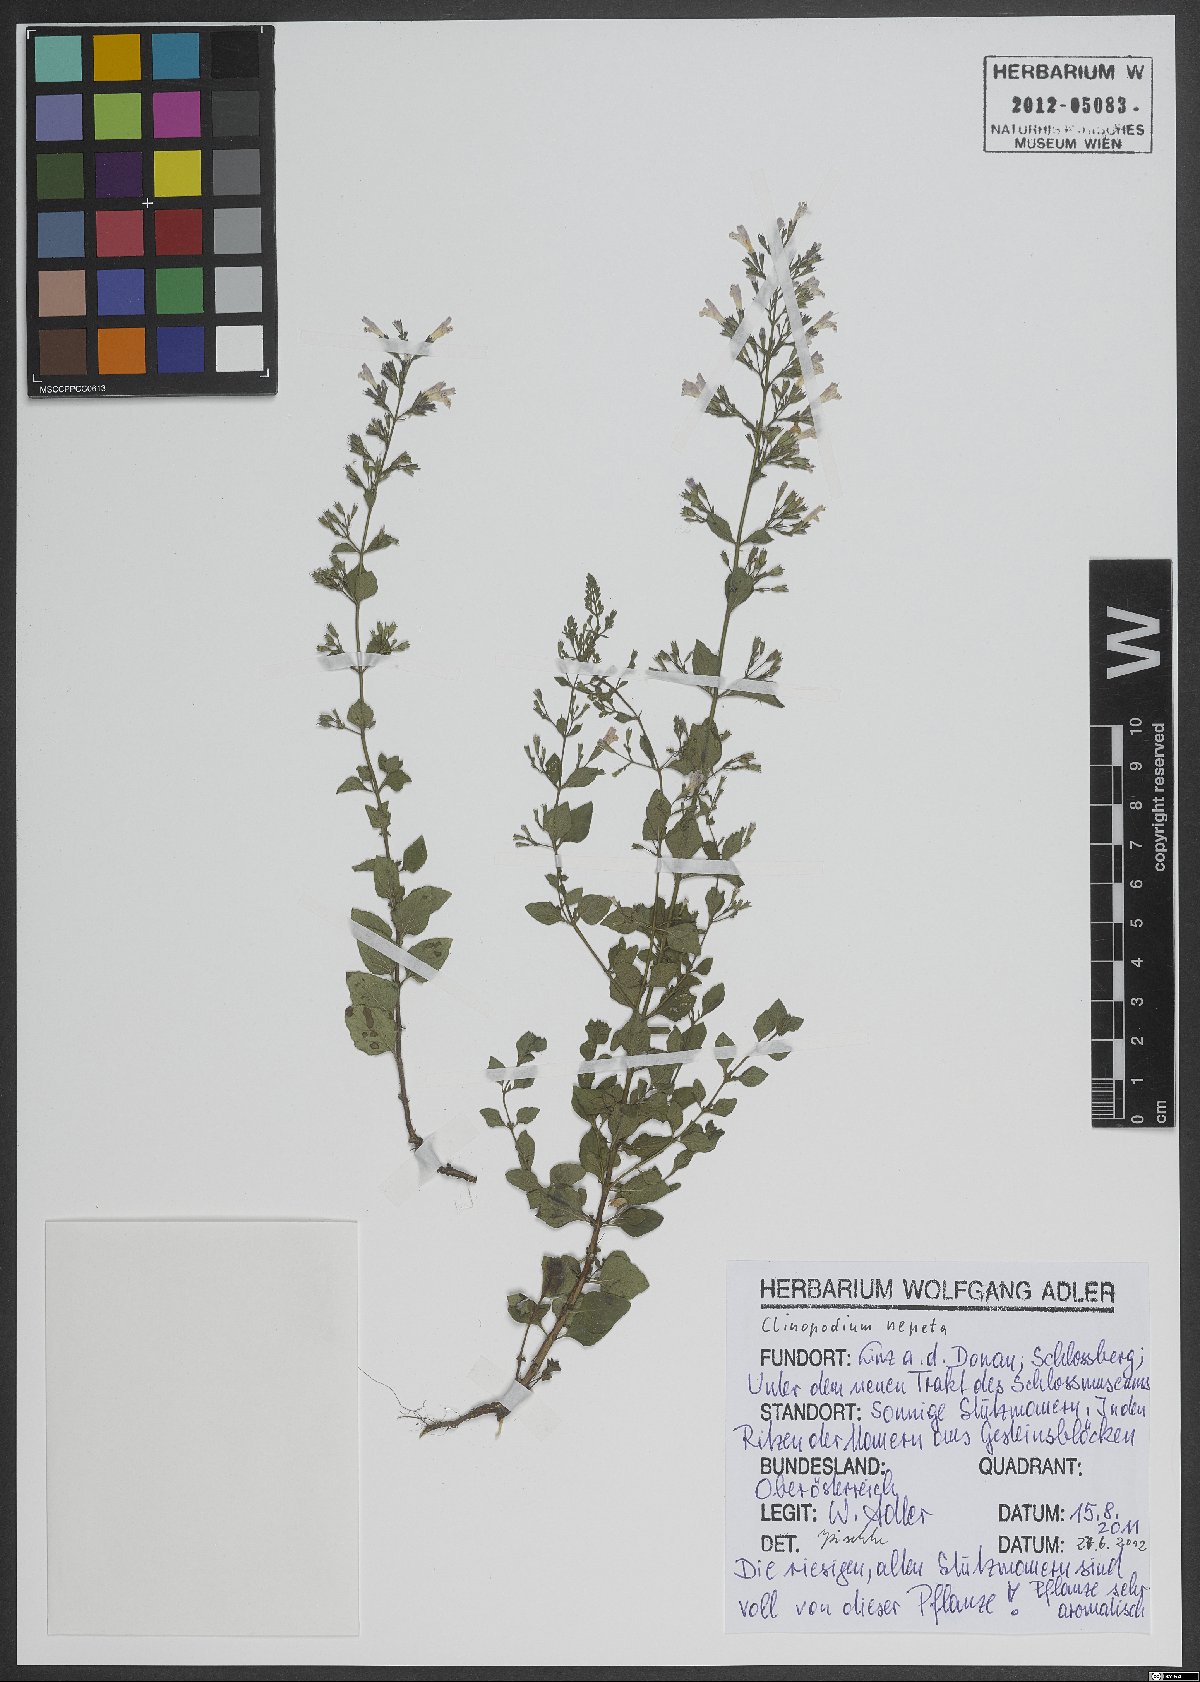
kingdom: Plantae
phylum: Tracheophyta
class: Magnoliopsida
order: Lamiales
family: Lamiaceae
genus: Clinopodium
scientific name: Clinopodium nepeta
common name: Lesser calamint
